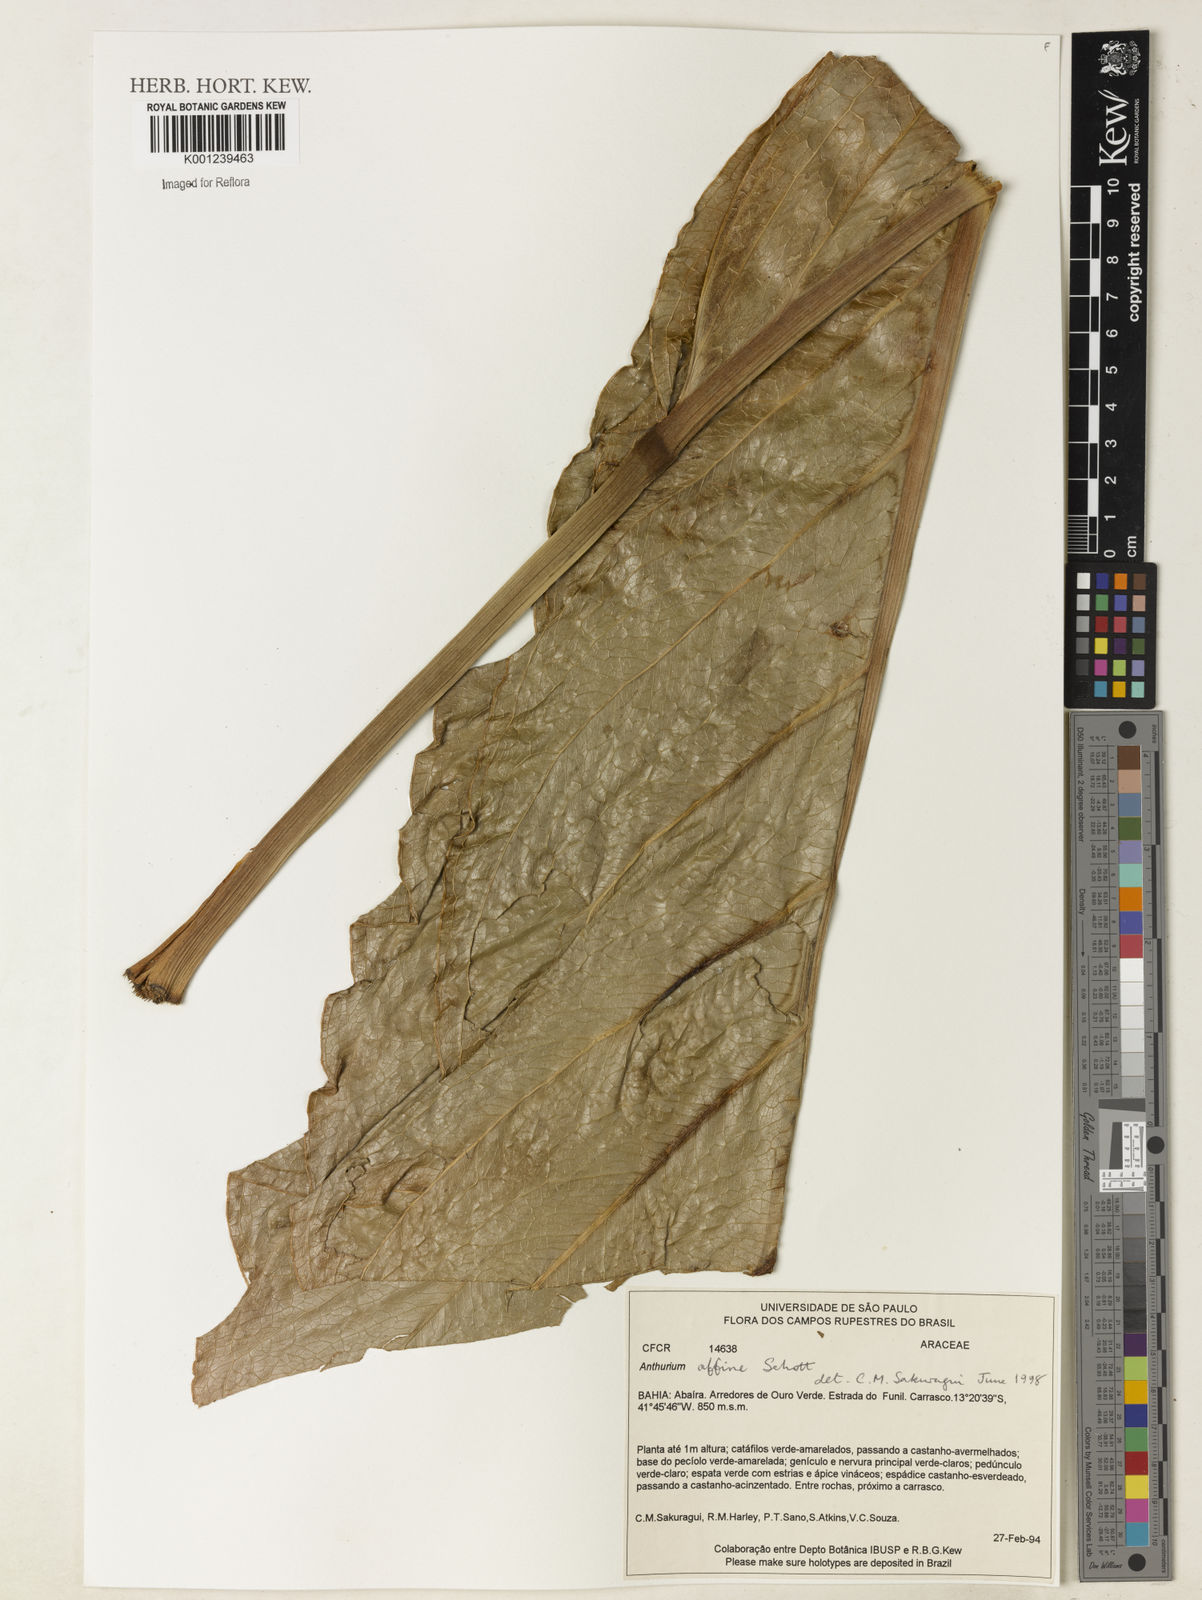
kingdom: Plantae
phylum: Tracheophyta
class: Liliopsida
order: Alismatales
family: Araceae
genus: Anthurium
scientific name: Anthurium affine
